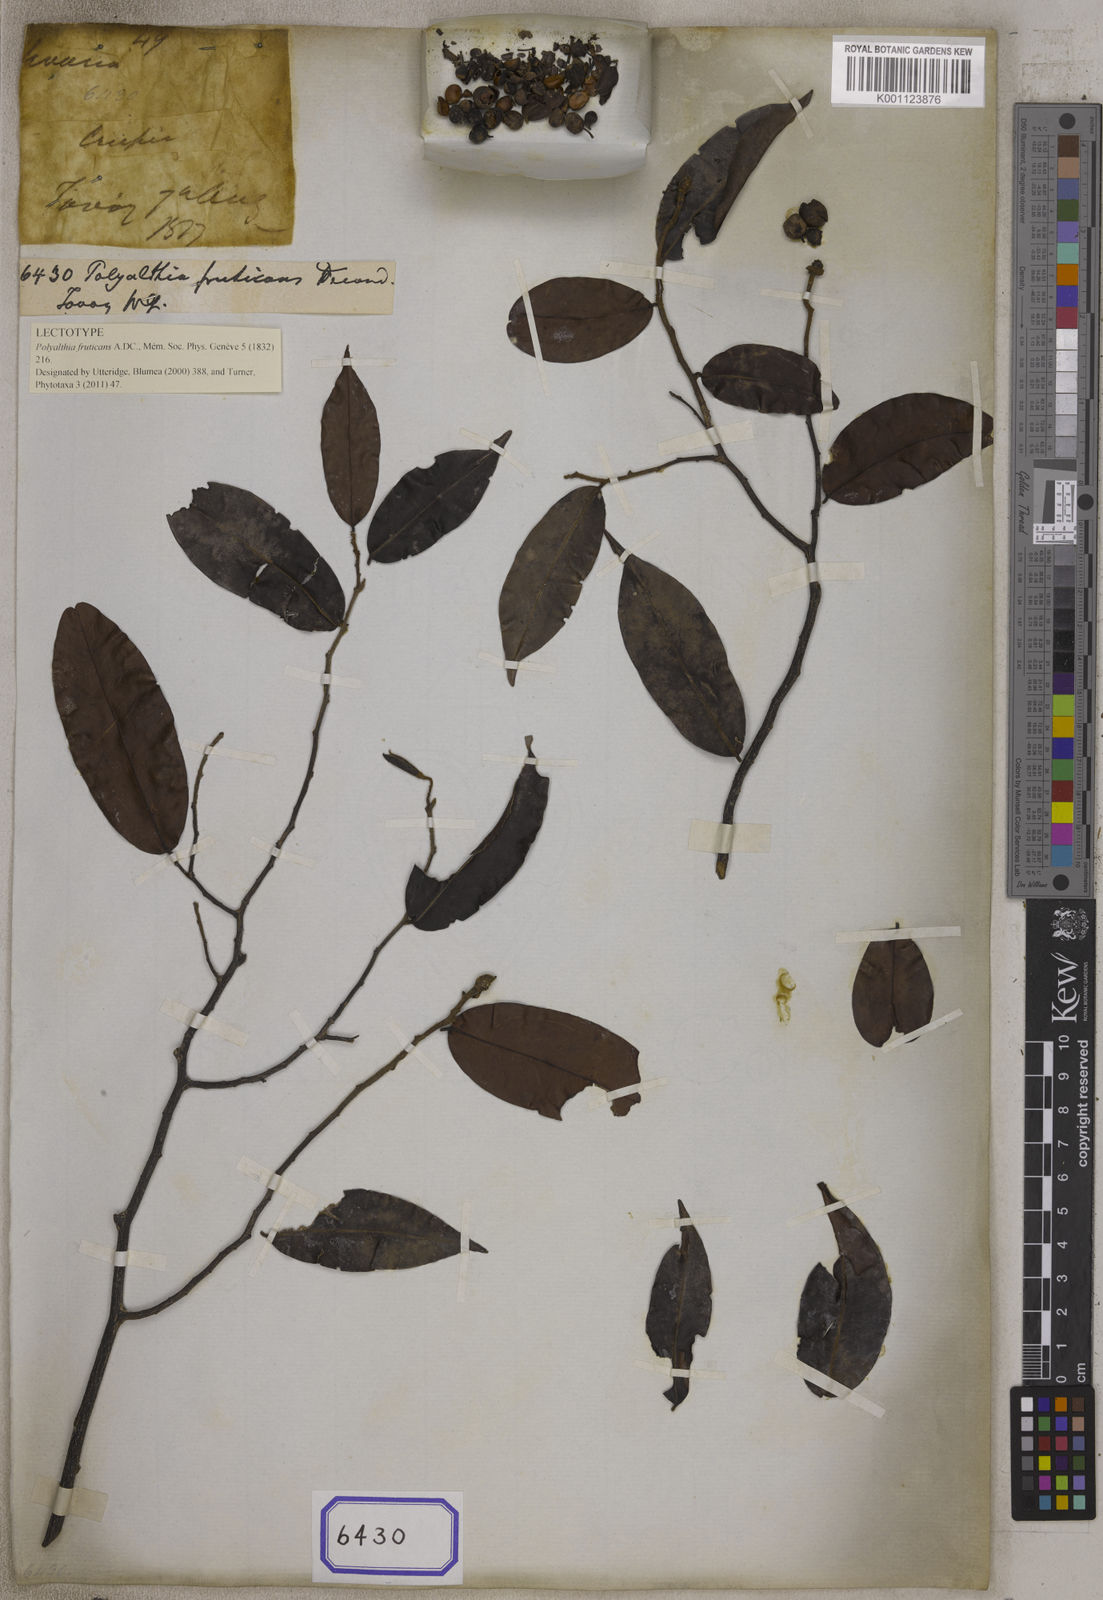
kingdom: Plantae
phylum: Tracheophyta
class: Magnoliopsida
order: Magnoliales
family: Annonaceae
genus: Uvaria
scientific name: Uvaria micrantha
